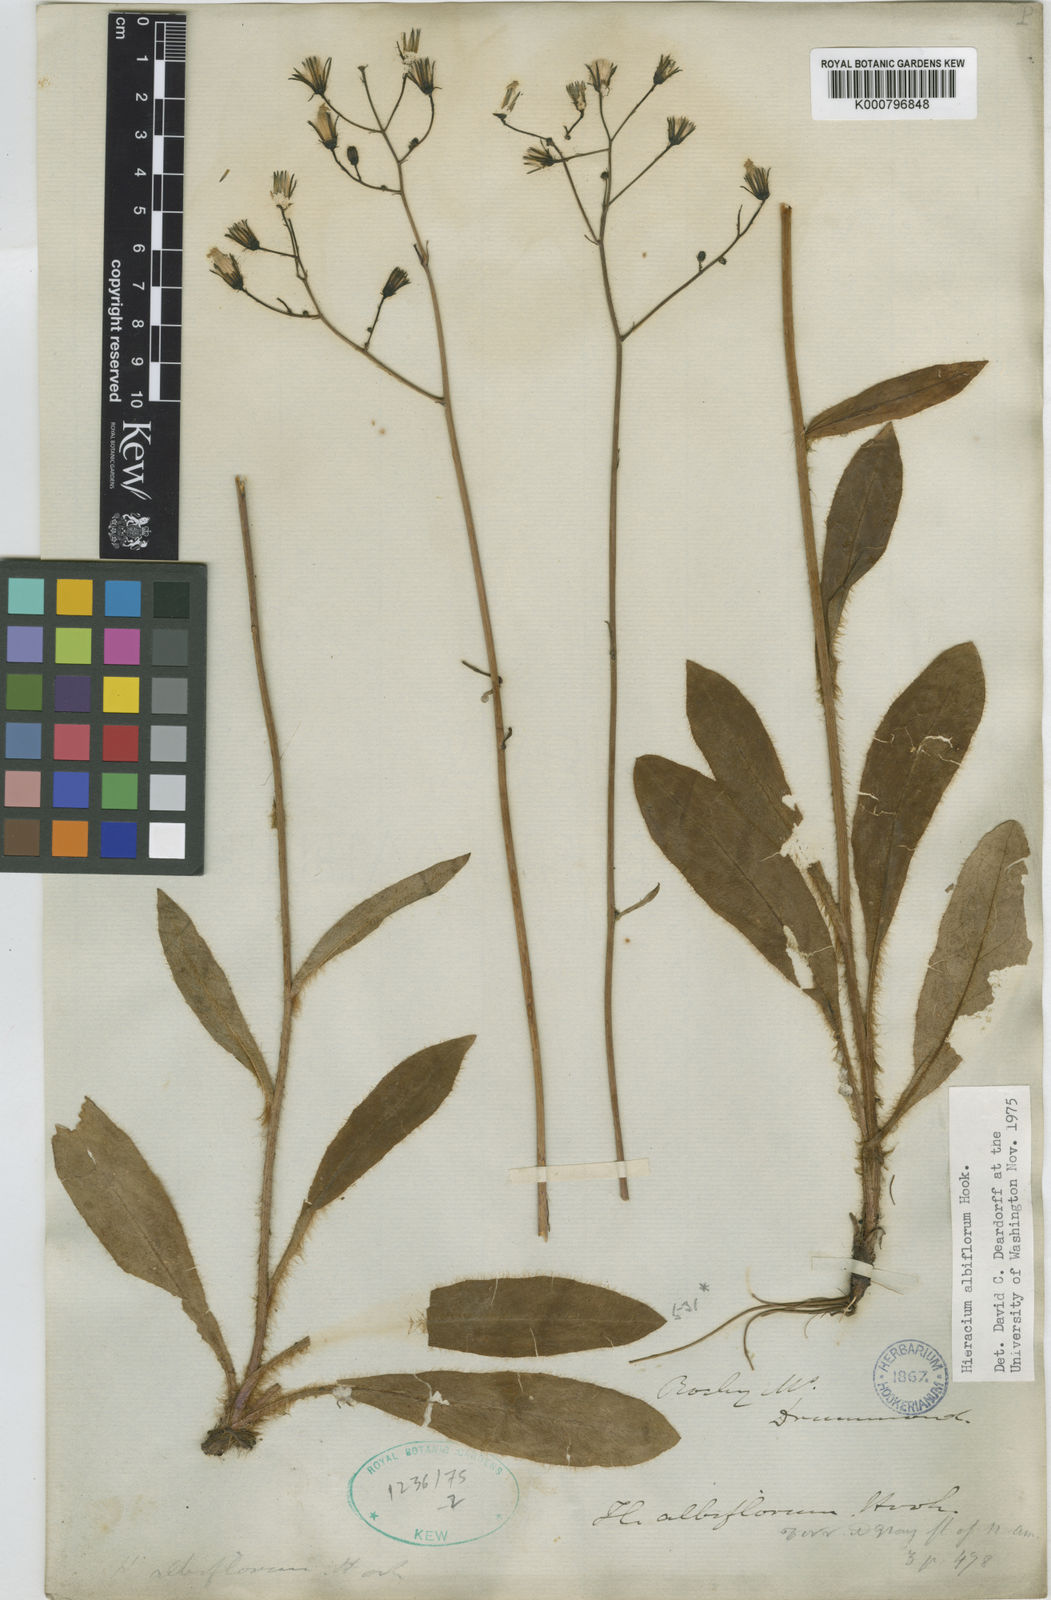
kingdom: Plantae
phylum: Tracheophyta
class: Magnoliopsida
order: Asterales
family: Asteraceae
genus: Hieracium
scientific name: Hieracium albiflorum
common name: White hawkweed
